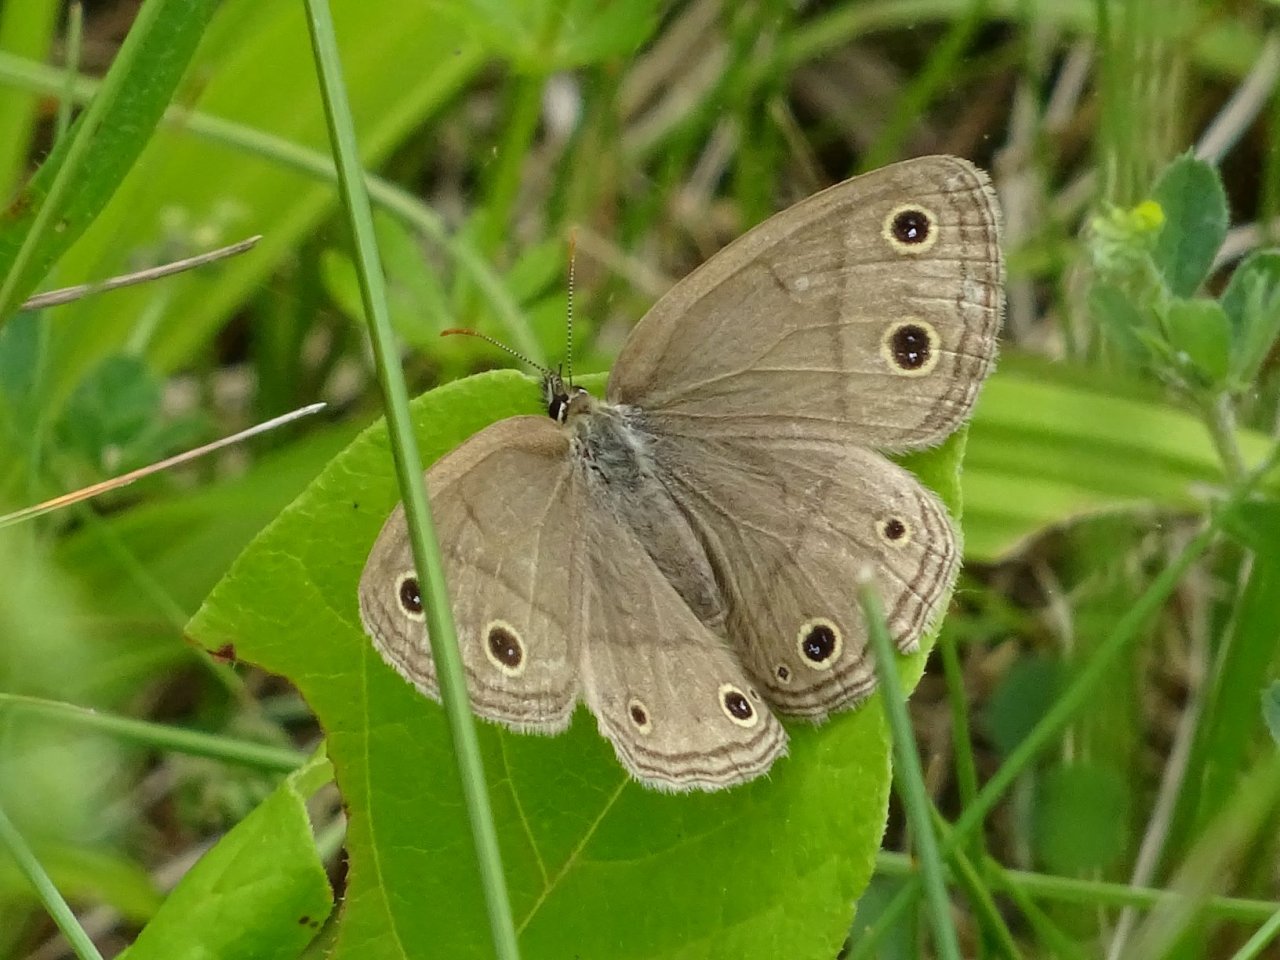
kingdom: Animalia
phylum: Arthropoda
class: Insecta
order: Lepidoptera
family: Nymphalidae
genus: Euptychia
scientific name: Euptychia cymela
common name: Little Wood Satyr
